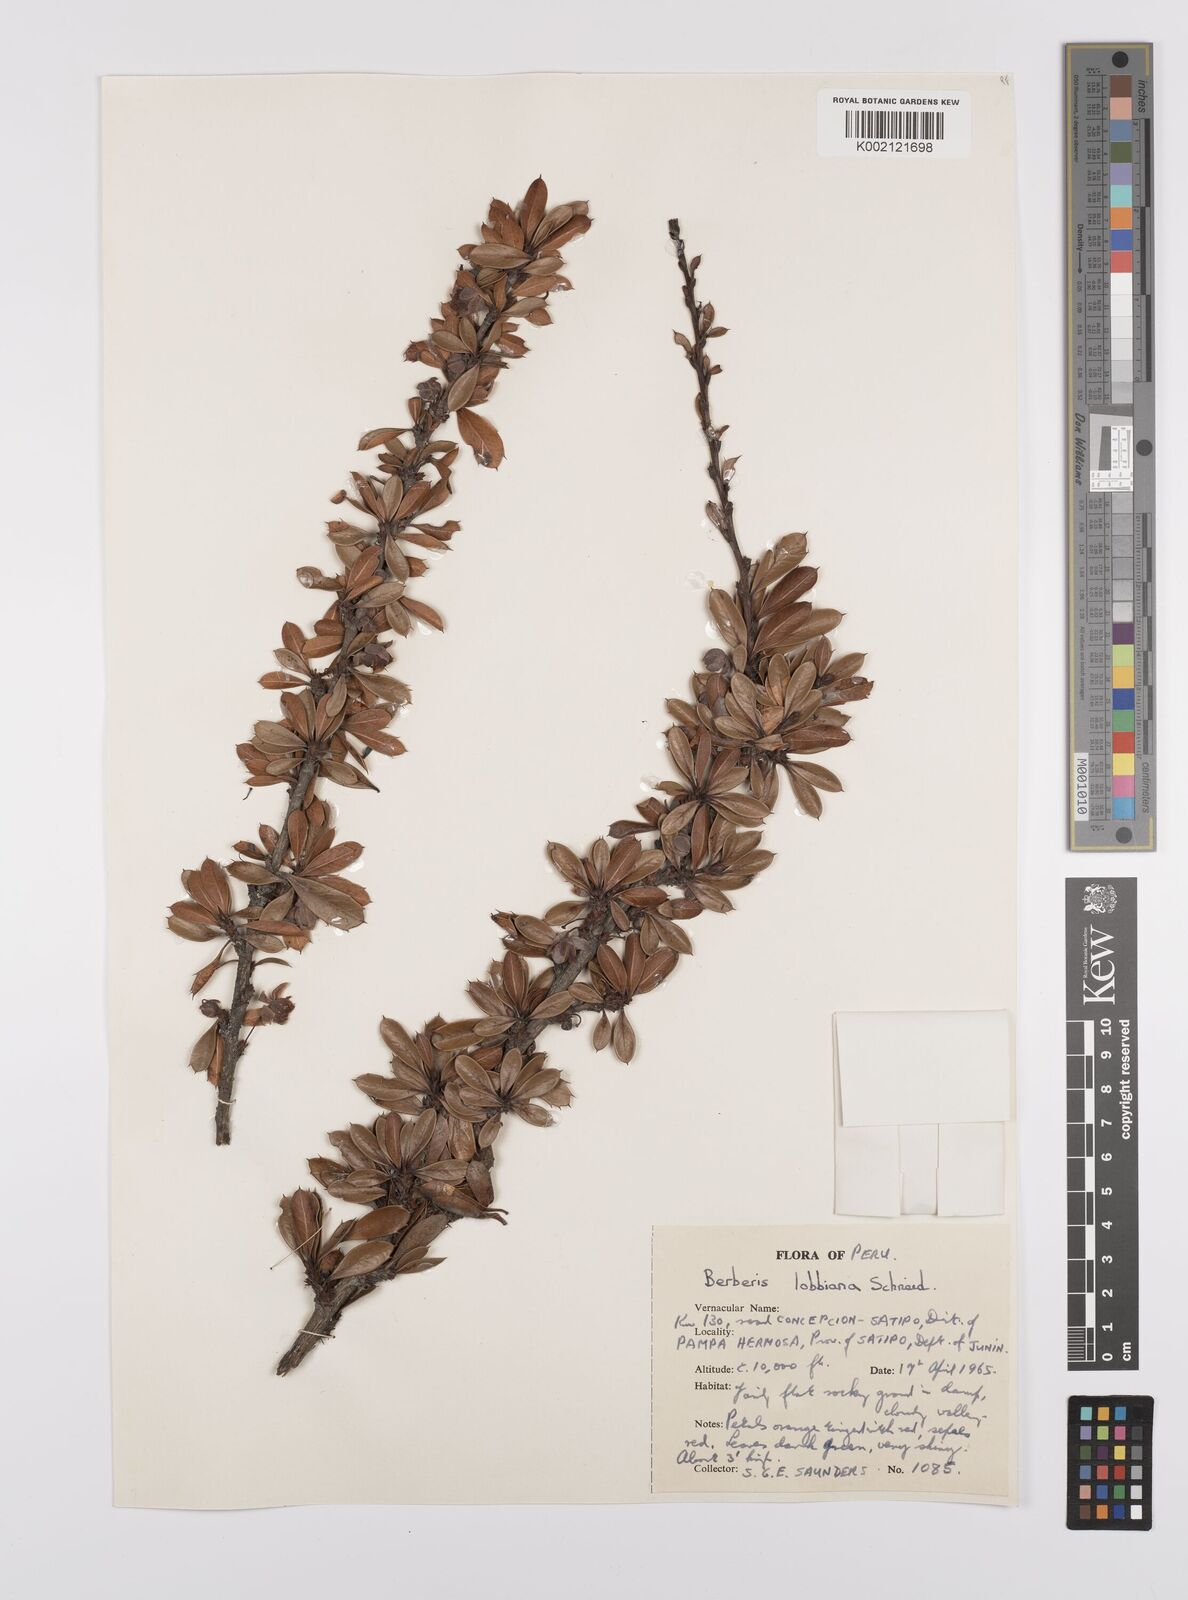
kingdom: Plantae
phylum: Tracheophyta
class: Magnoliopsida
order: Ranunculales
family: Berberidaceae
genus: Berberis
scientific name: Berberis lutea
